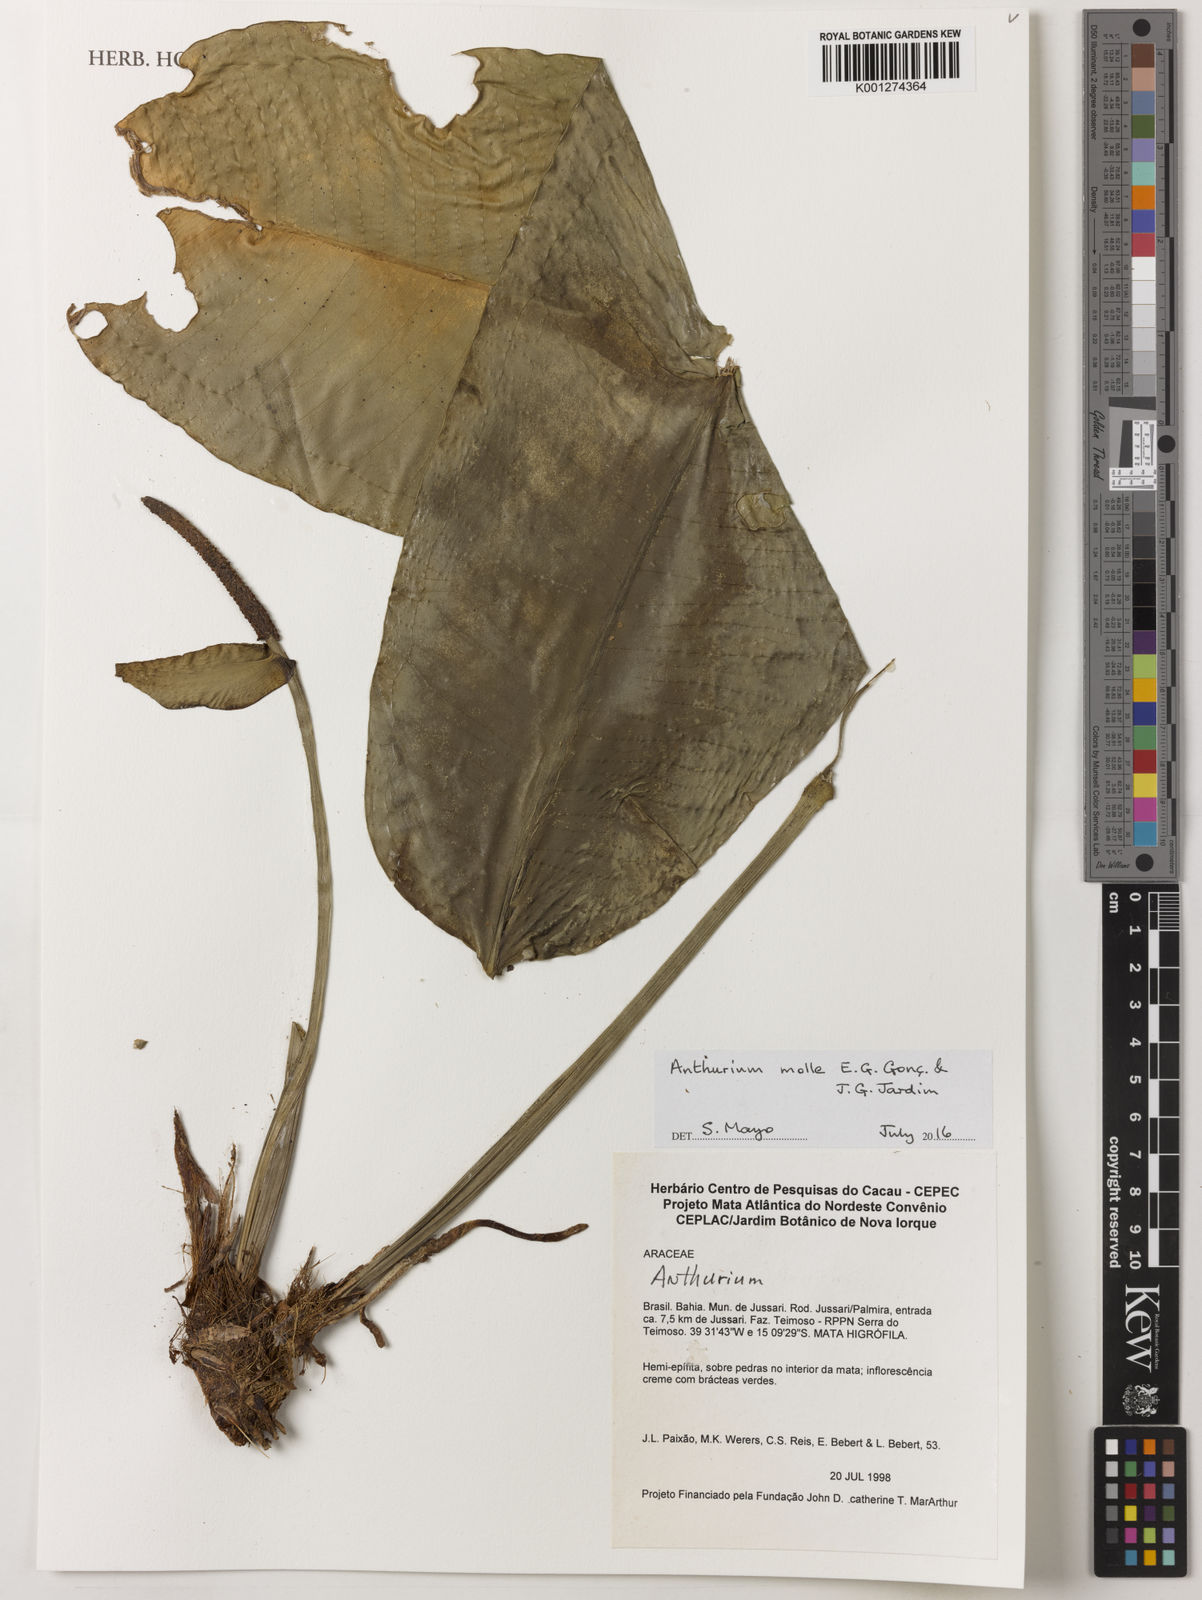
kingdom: Plantae
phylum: Tracheophyta
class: Liliopsida
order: Alismatales
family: Araceae
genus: Anthurium
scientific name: Anthurium molle
